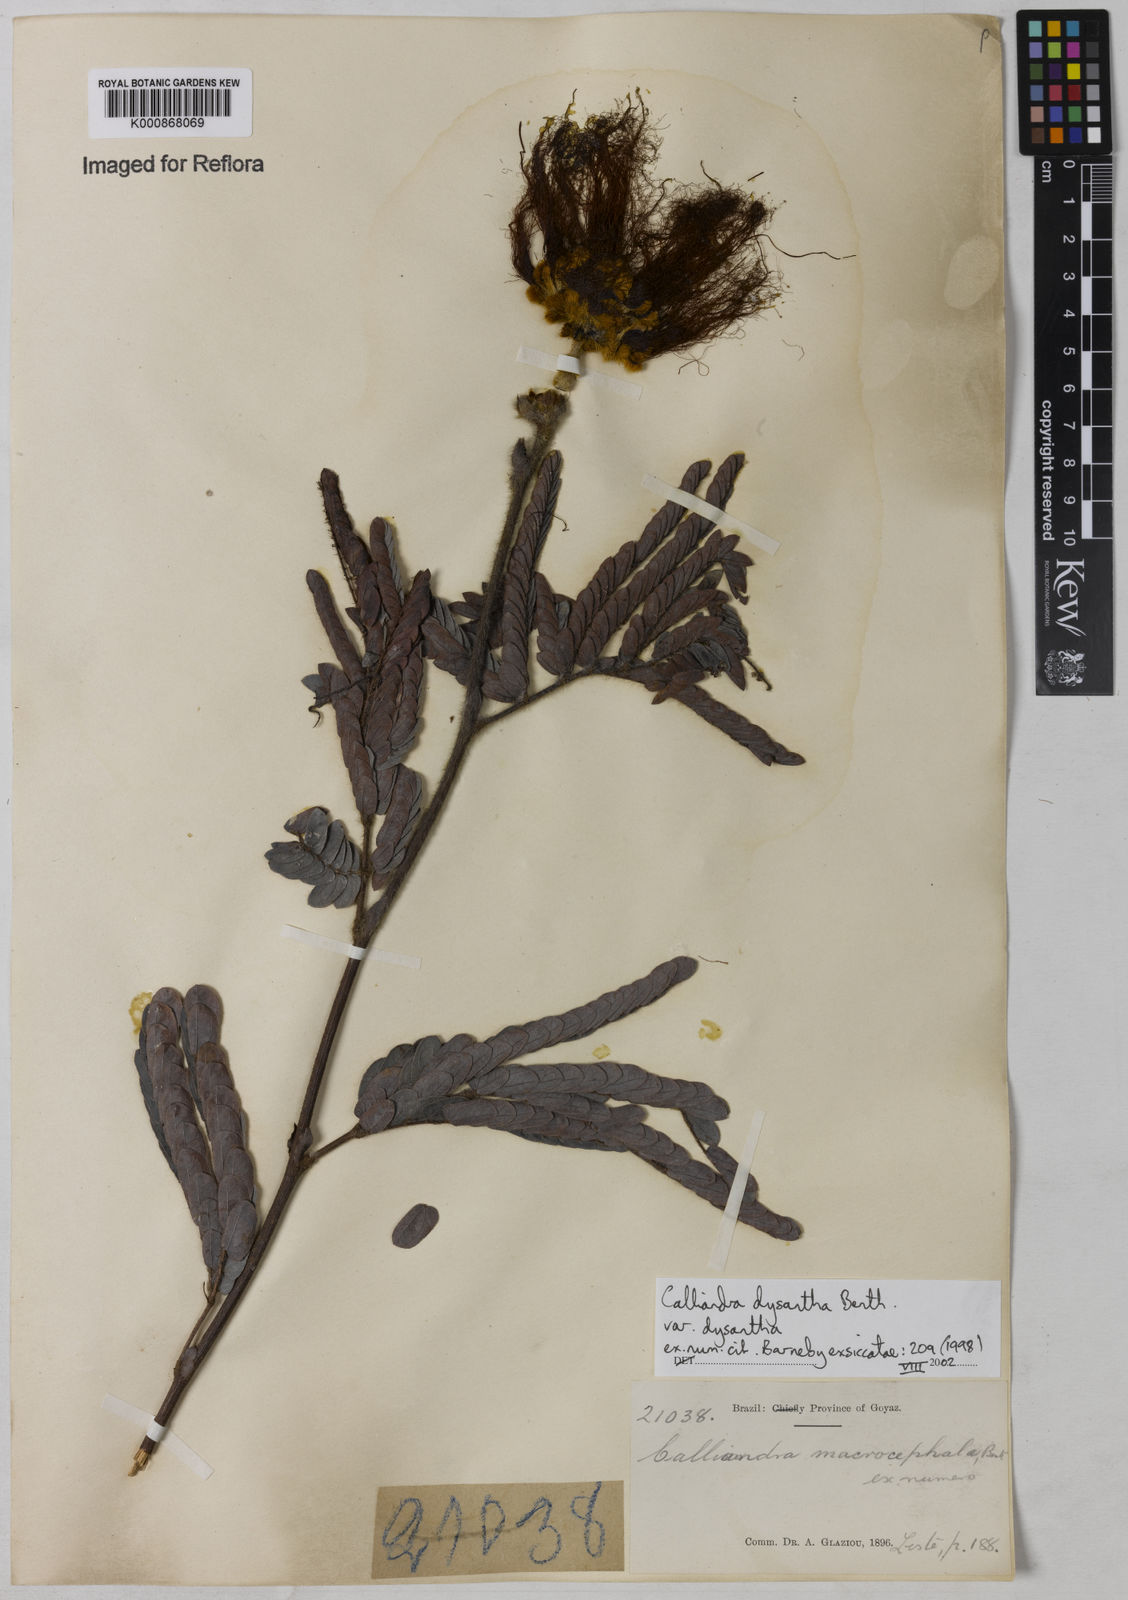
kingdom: Plantae
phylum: Tracheophyta
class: Magnoliopsida
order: Fabales
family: Fabaceae
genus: Calliandra
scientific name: Calliandra dysantha
